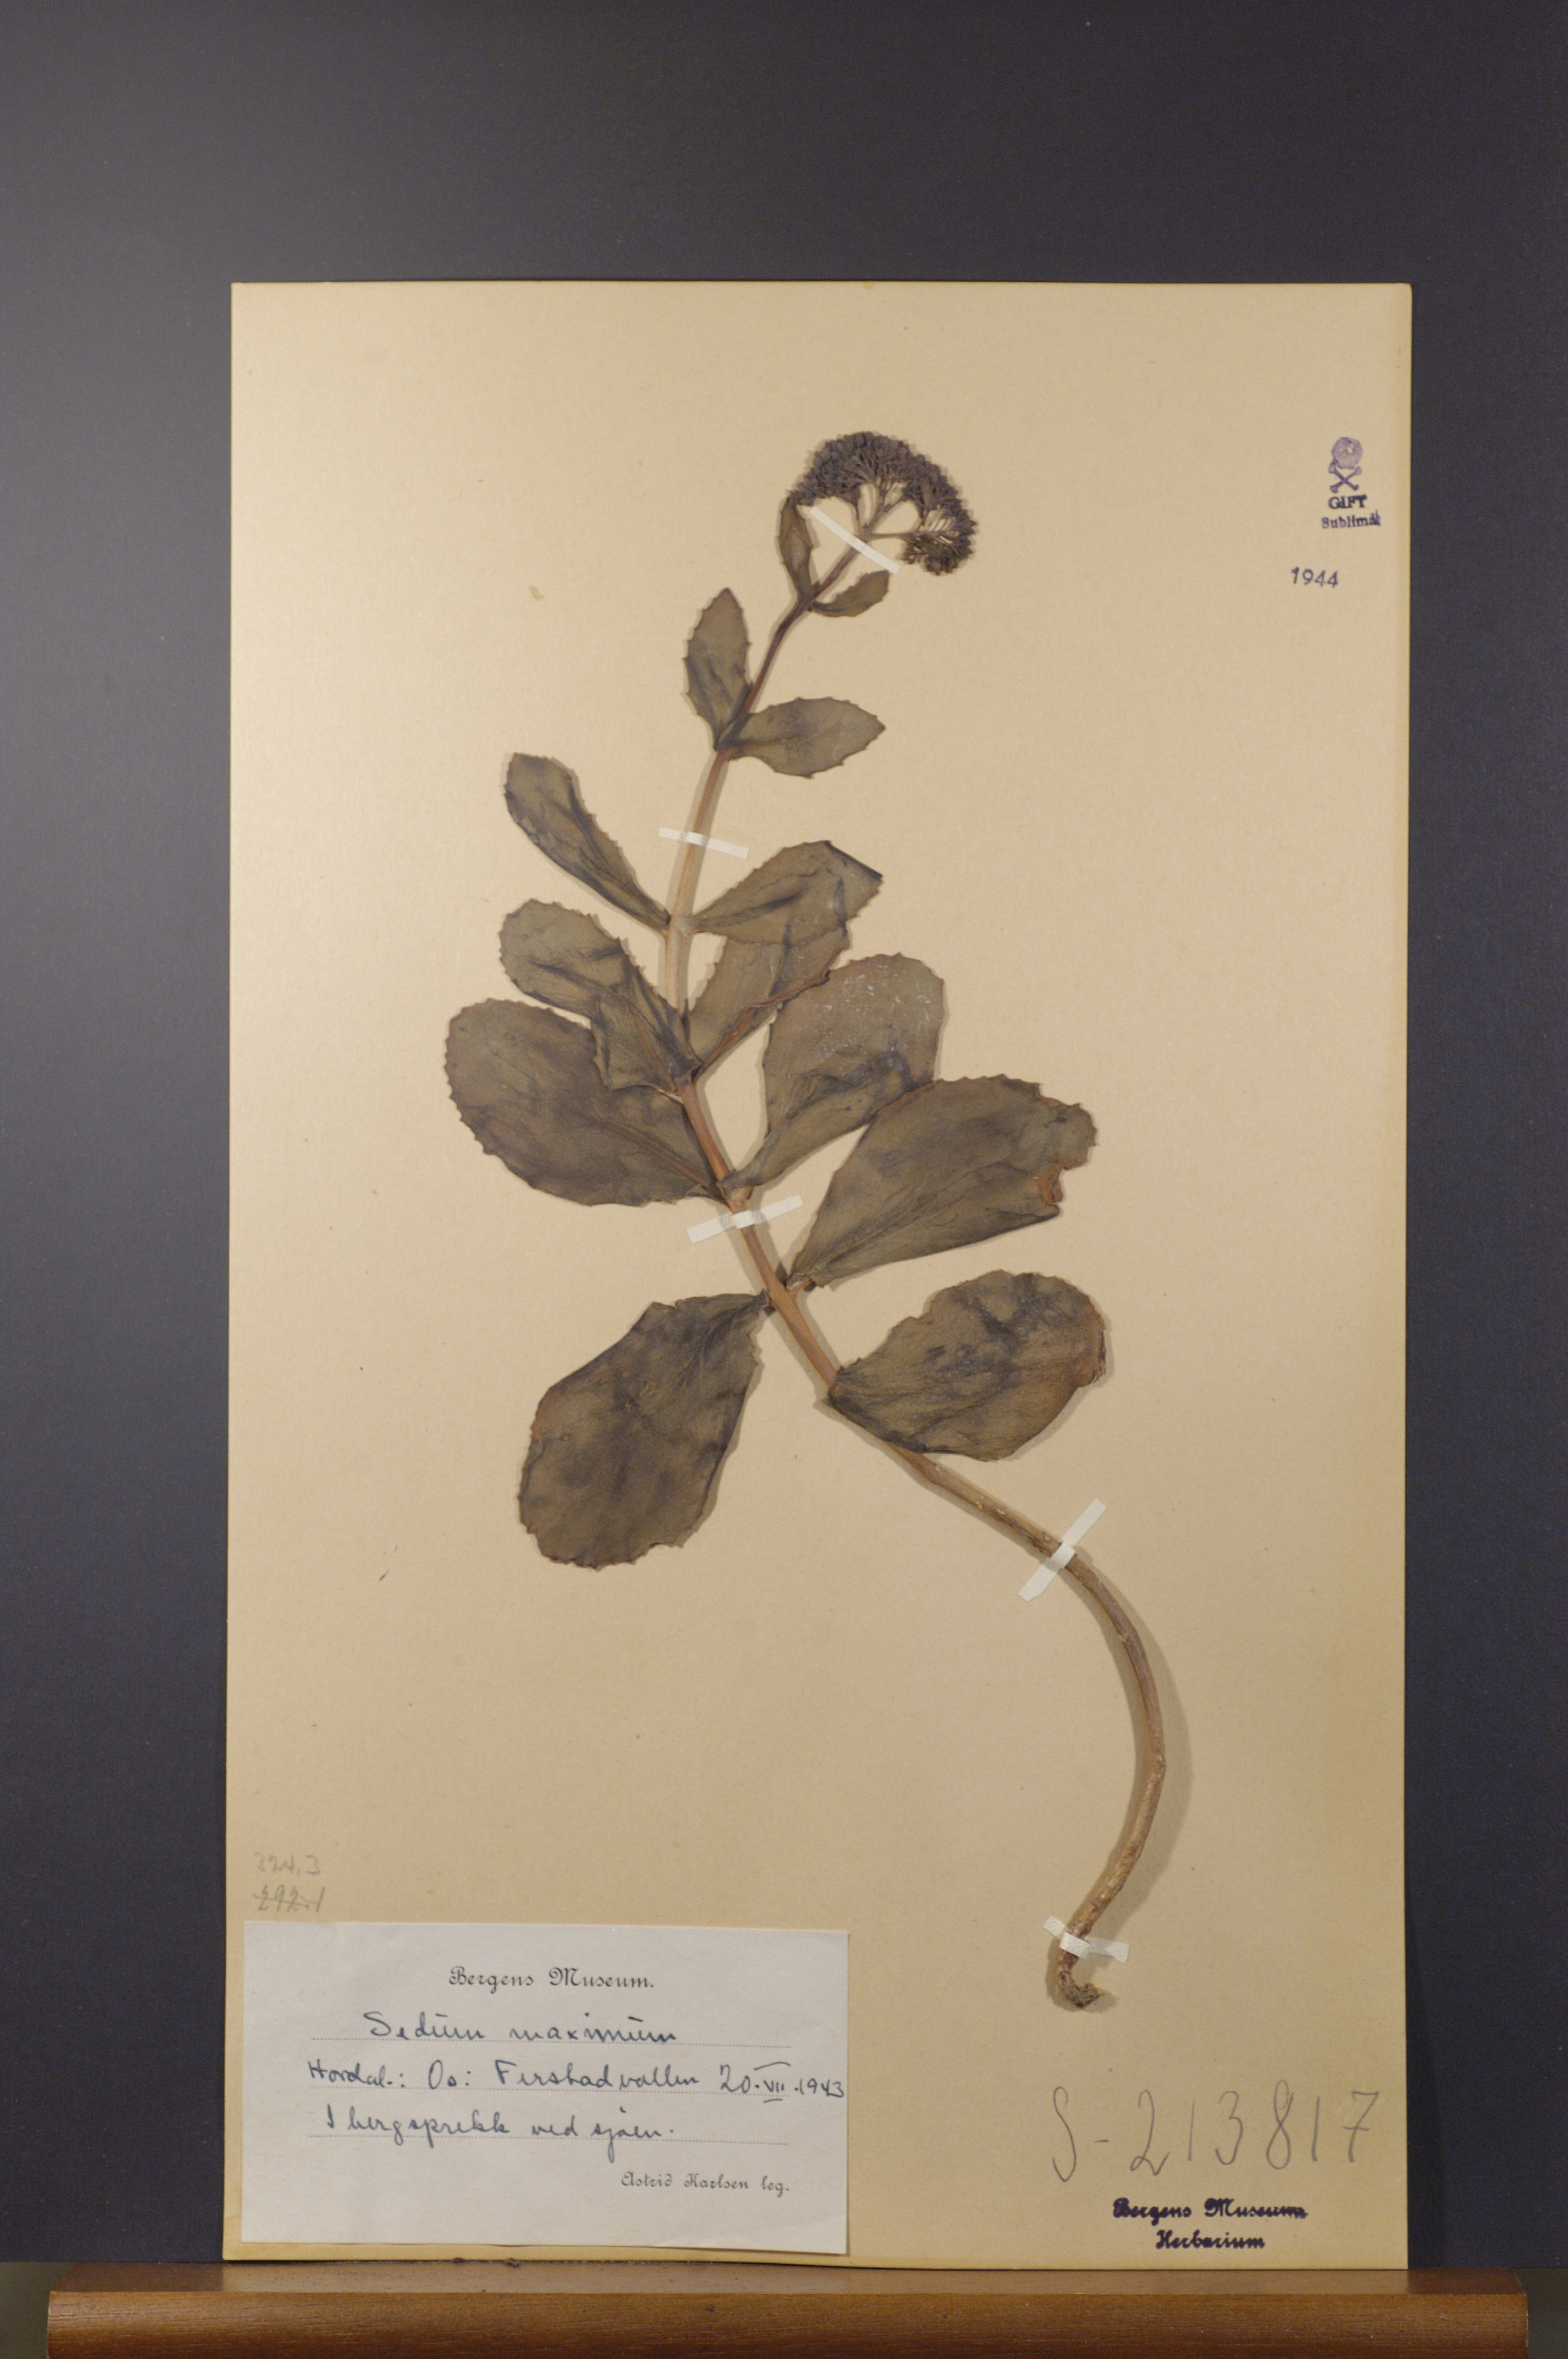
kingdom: Plantae
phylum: Tracheophyta
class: Magnoliopsida
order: Saxifragales
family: Crassulaceae
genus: Hylotelephium
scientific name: Hylotelephium maximum
